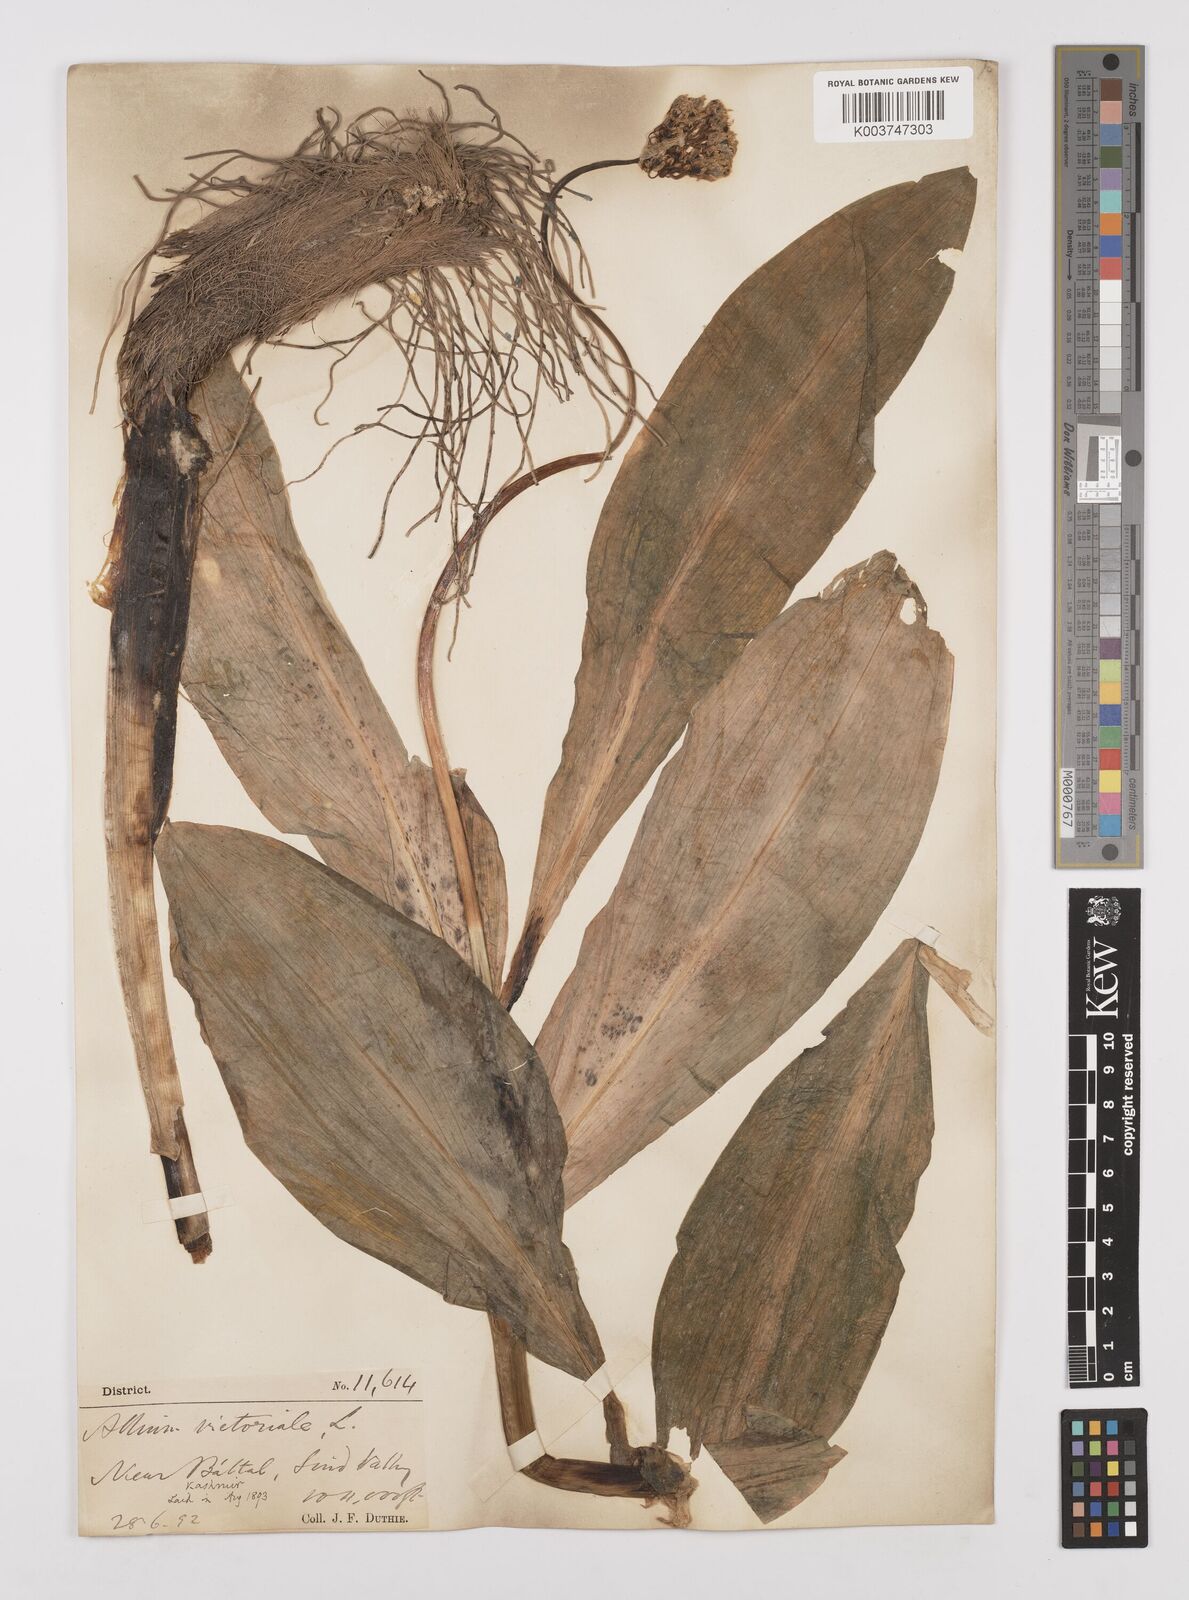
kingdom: Plantae
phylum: Tracheophyta
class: Liliopsida
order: Asparagales
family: Amaryllidaceae
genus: Allium
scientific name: Allium victorialis
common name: Alpine leek
